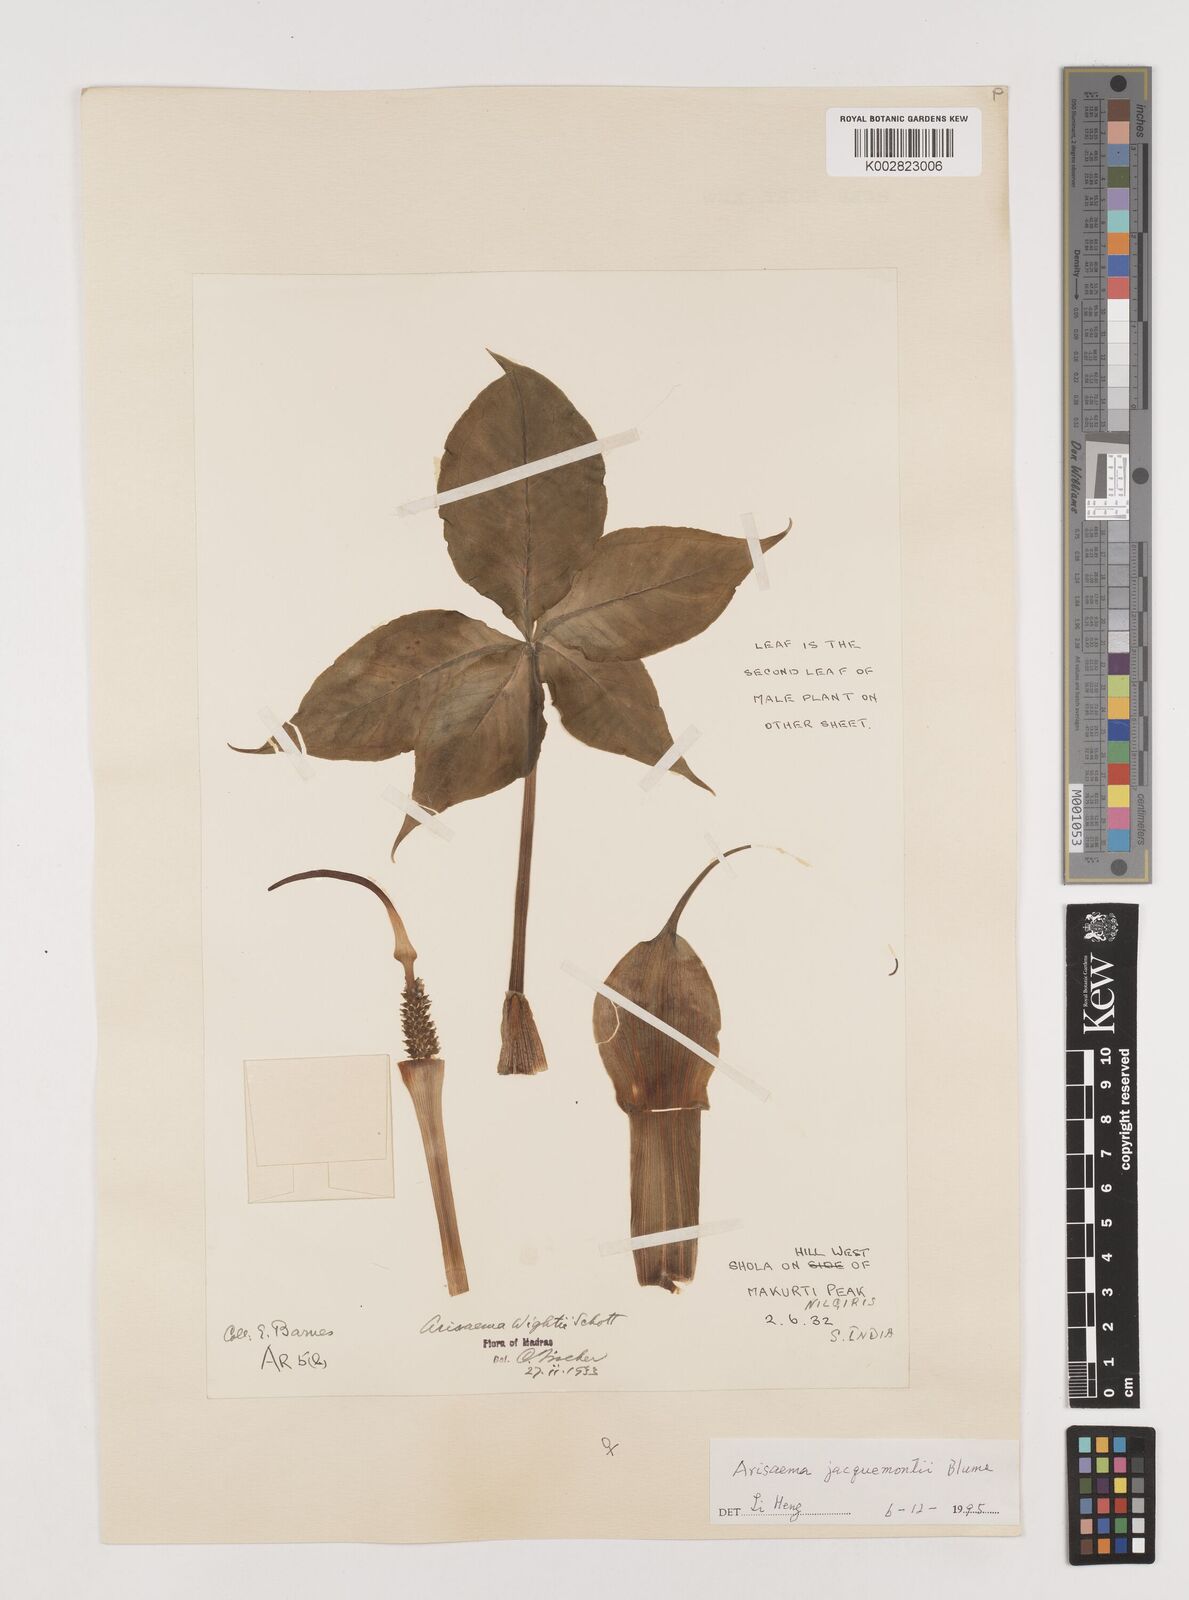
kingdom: Plantae
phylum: Tracheophyta
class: Liliopsida
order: Alismatales
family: Araceae
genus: Arisaema
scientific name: Arisaema jacquemontii
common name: Jacquemont's cobra-lily
